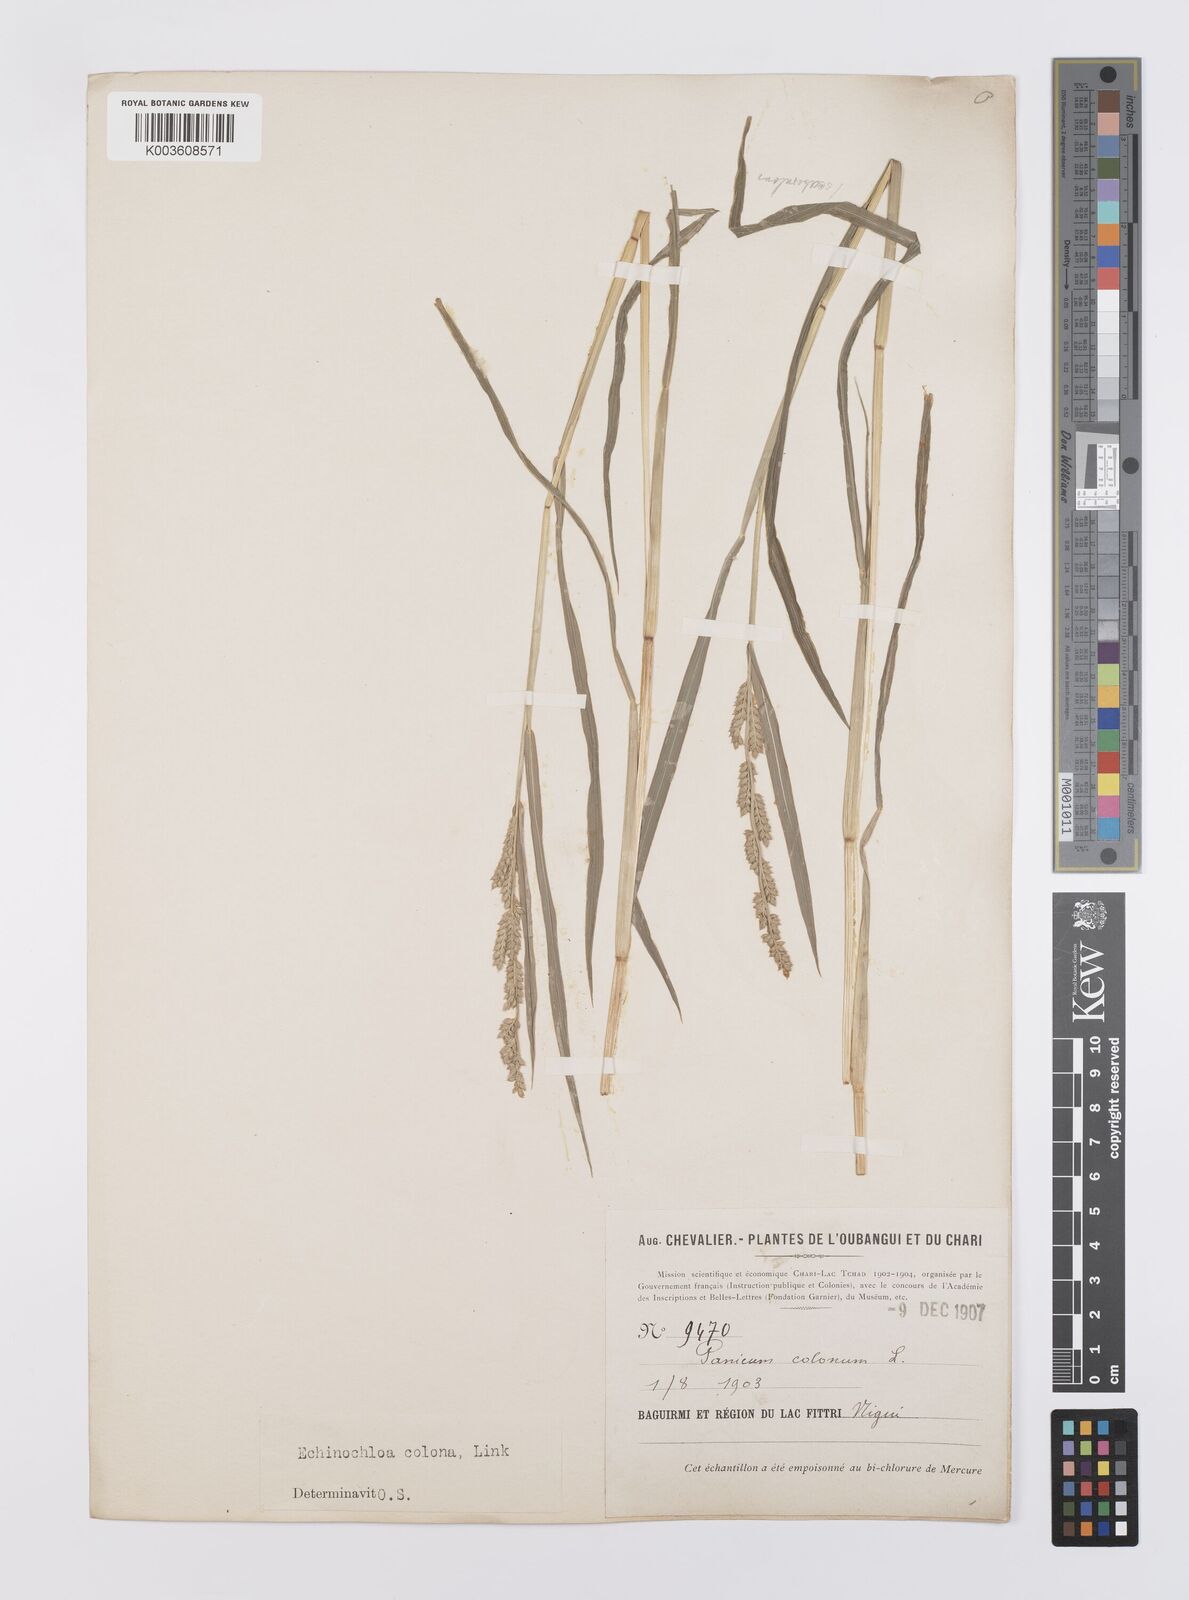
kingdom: Plantae
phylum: Tracheophyta
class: Liliopsida
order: Poales
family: Poaceae
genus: Echinochloa
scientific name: Echinochloa colonum
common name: Jungle rice
